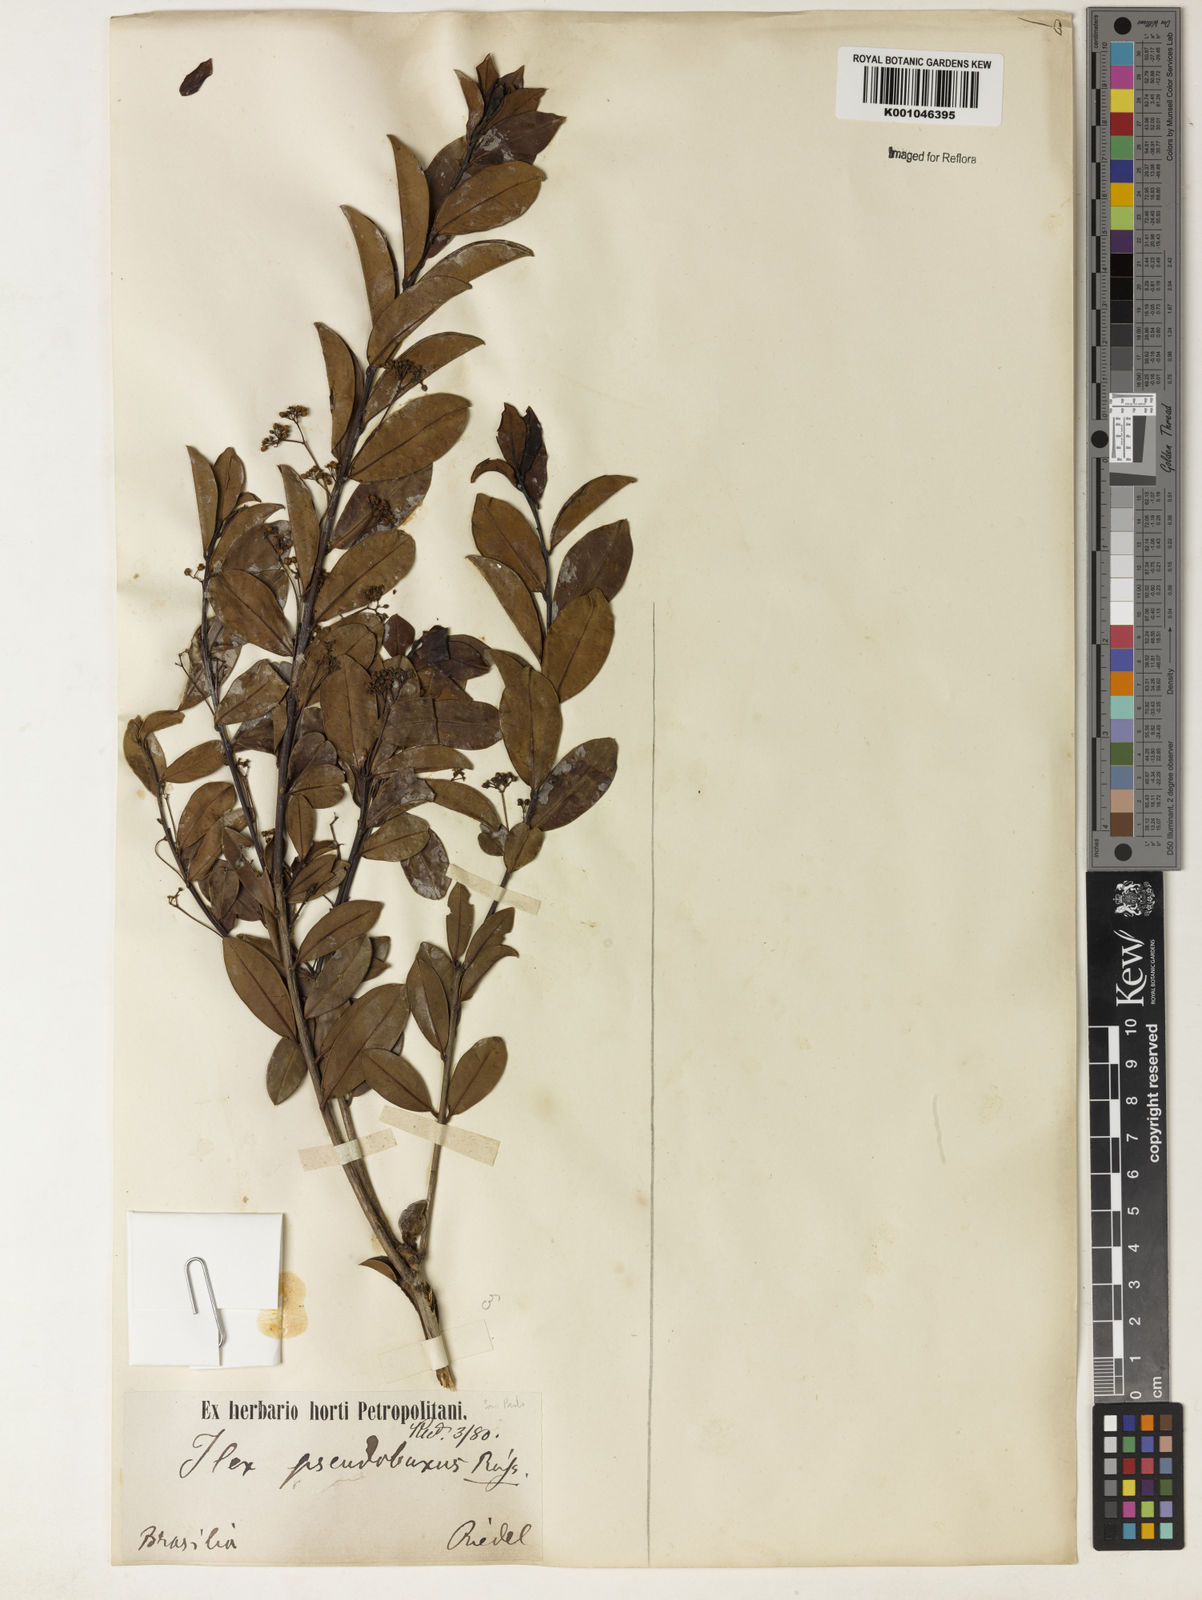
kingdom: Plantae
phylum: Tracheophyta
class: Magnoliopsida
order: Aquifoliales
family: Aquifoliaceae
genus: Ilex
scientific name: Ilex pseudobuxus
